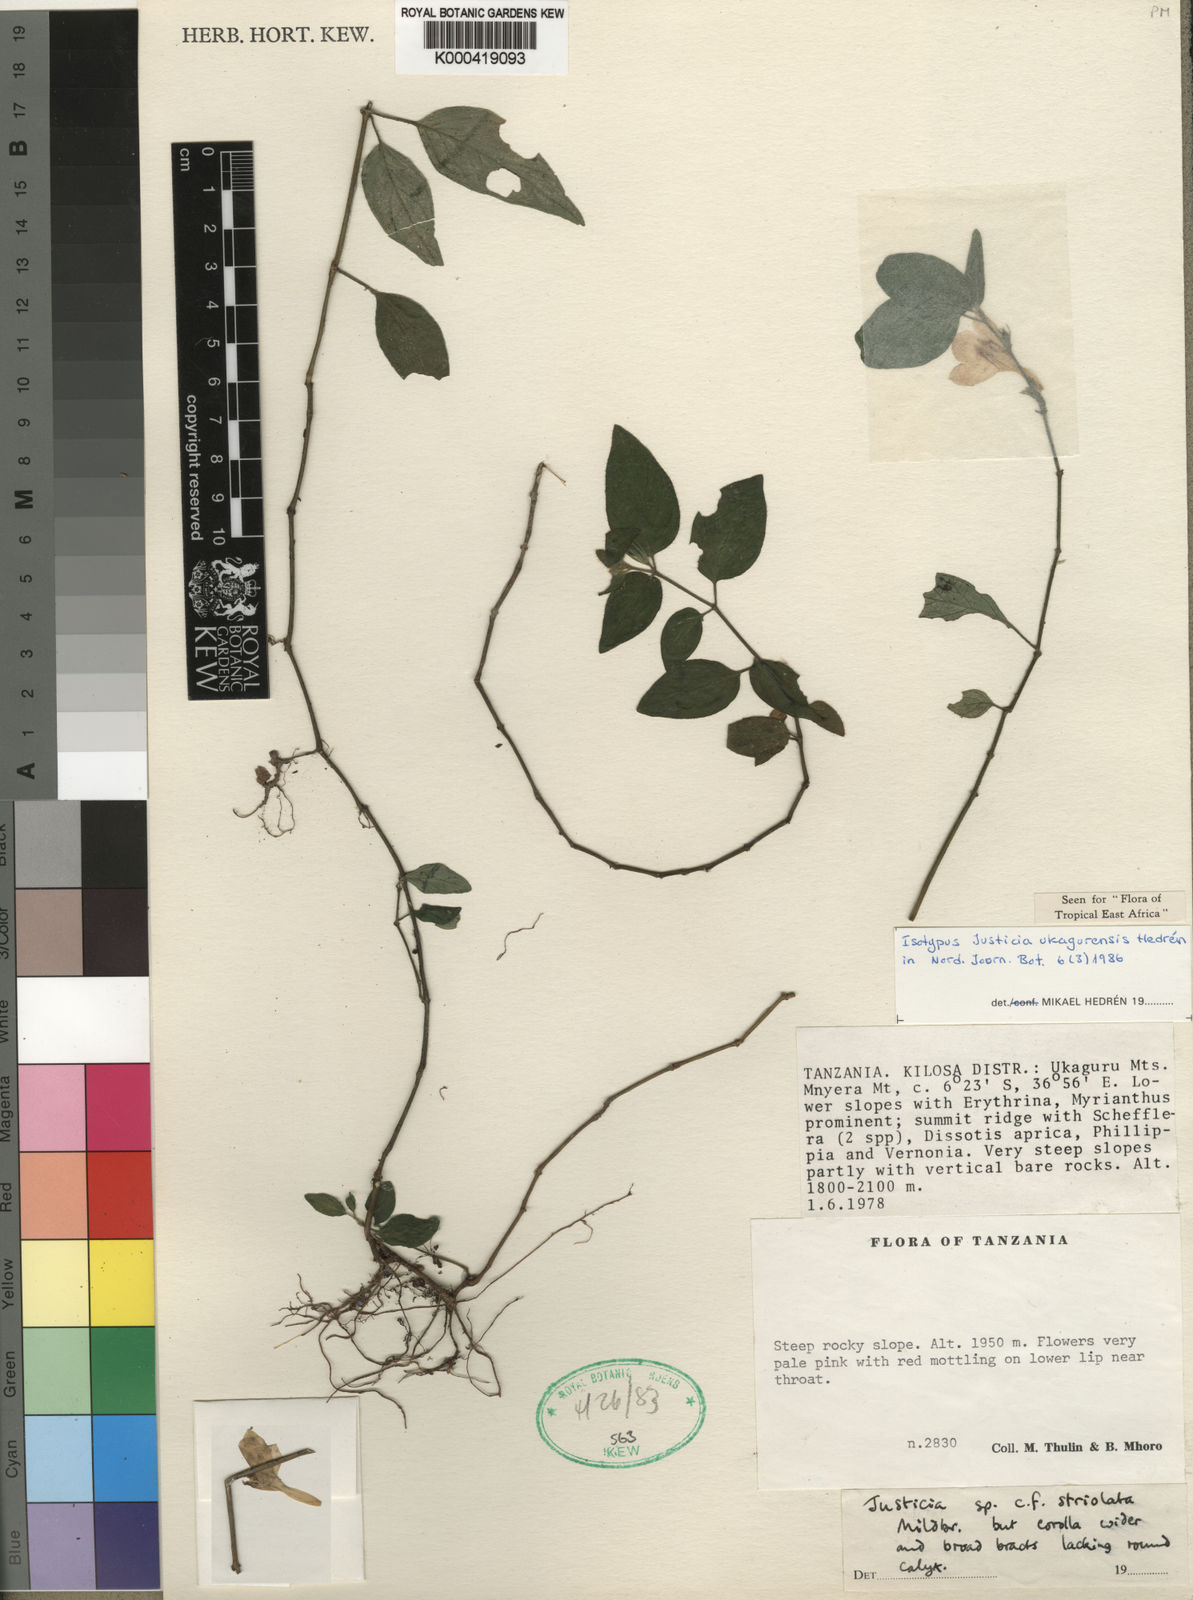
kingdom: Plantae
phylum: Tracheophyta
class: Magnoliopsida
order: Lamiales
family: Acanthaceae
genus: Justicia
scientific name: Justicia
